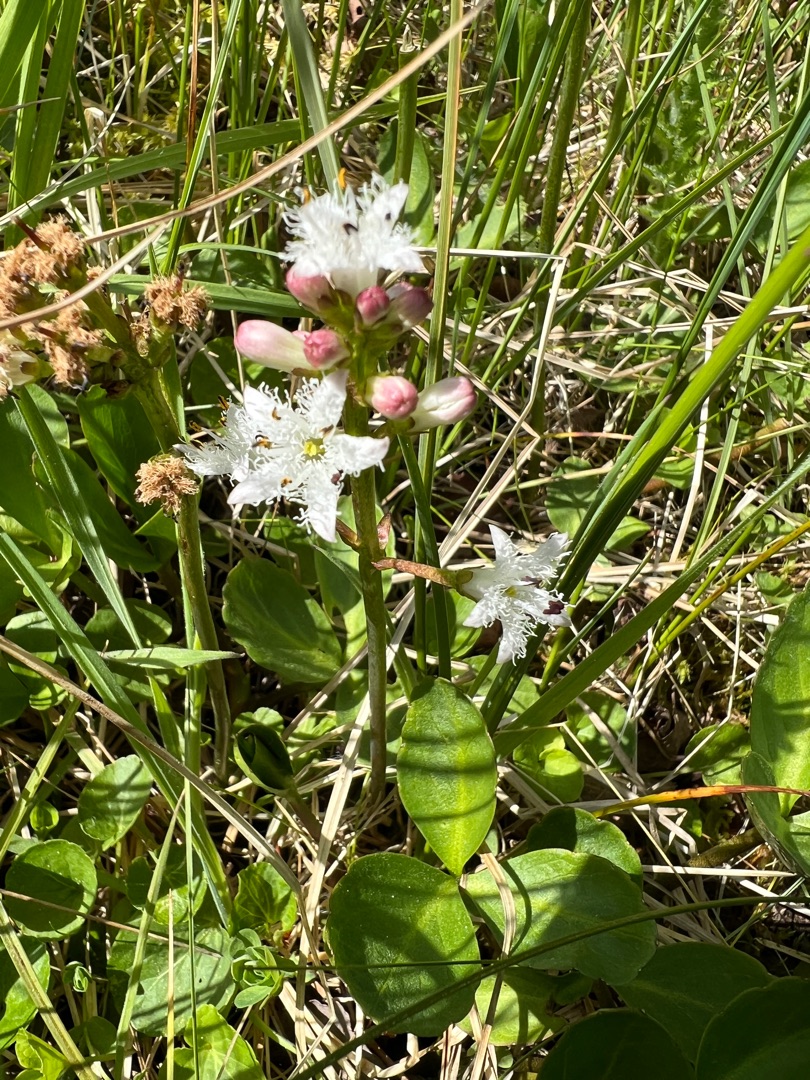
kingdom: Plantae
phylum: Tracheophyta
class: Magnoliopsida
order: Asterales
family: Menyanthaceae
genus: Menyanthes
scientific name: Menyanthes trifoliata
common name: Bukkeblad
